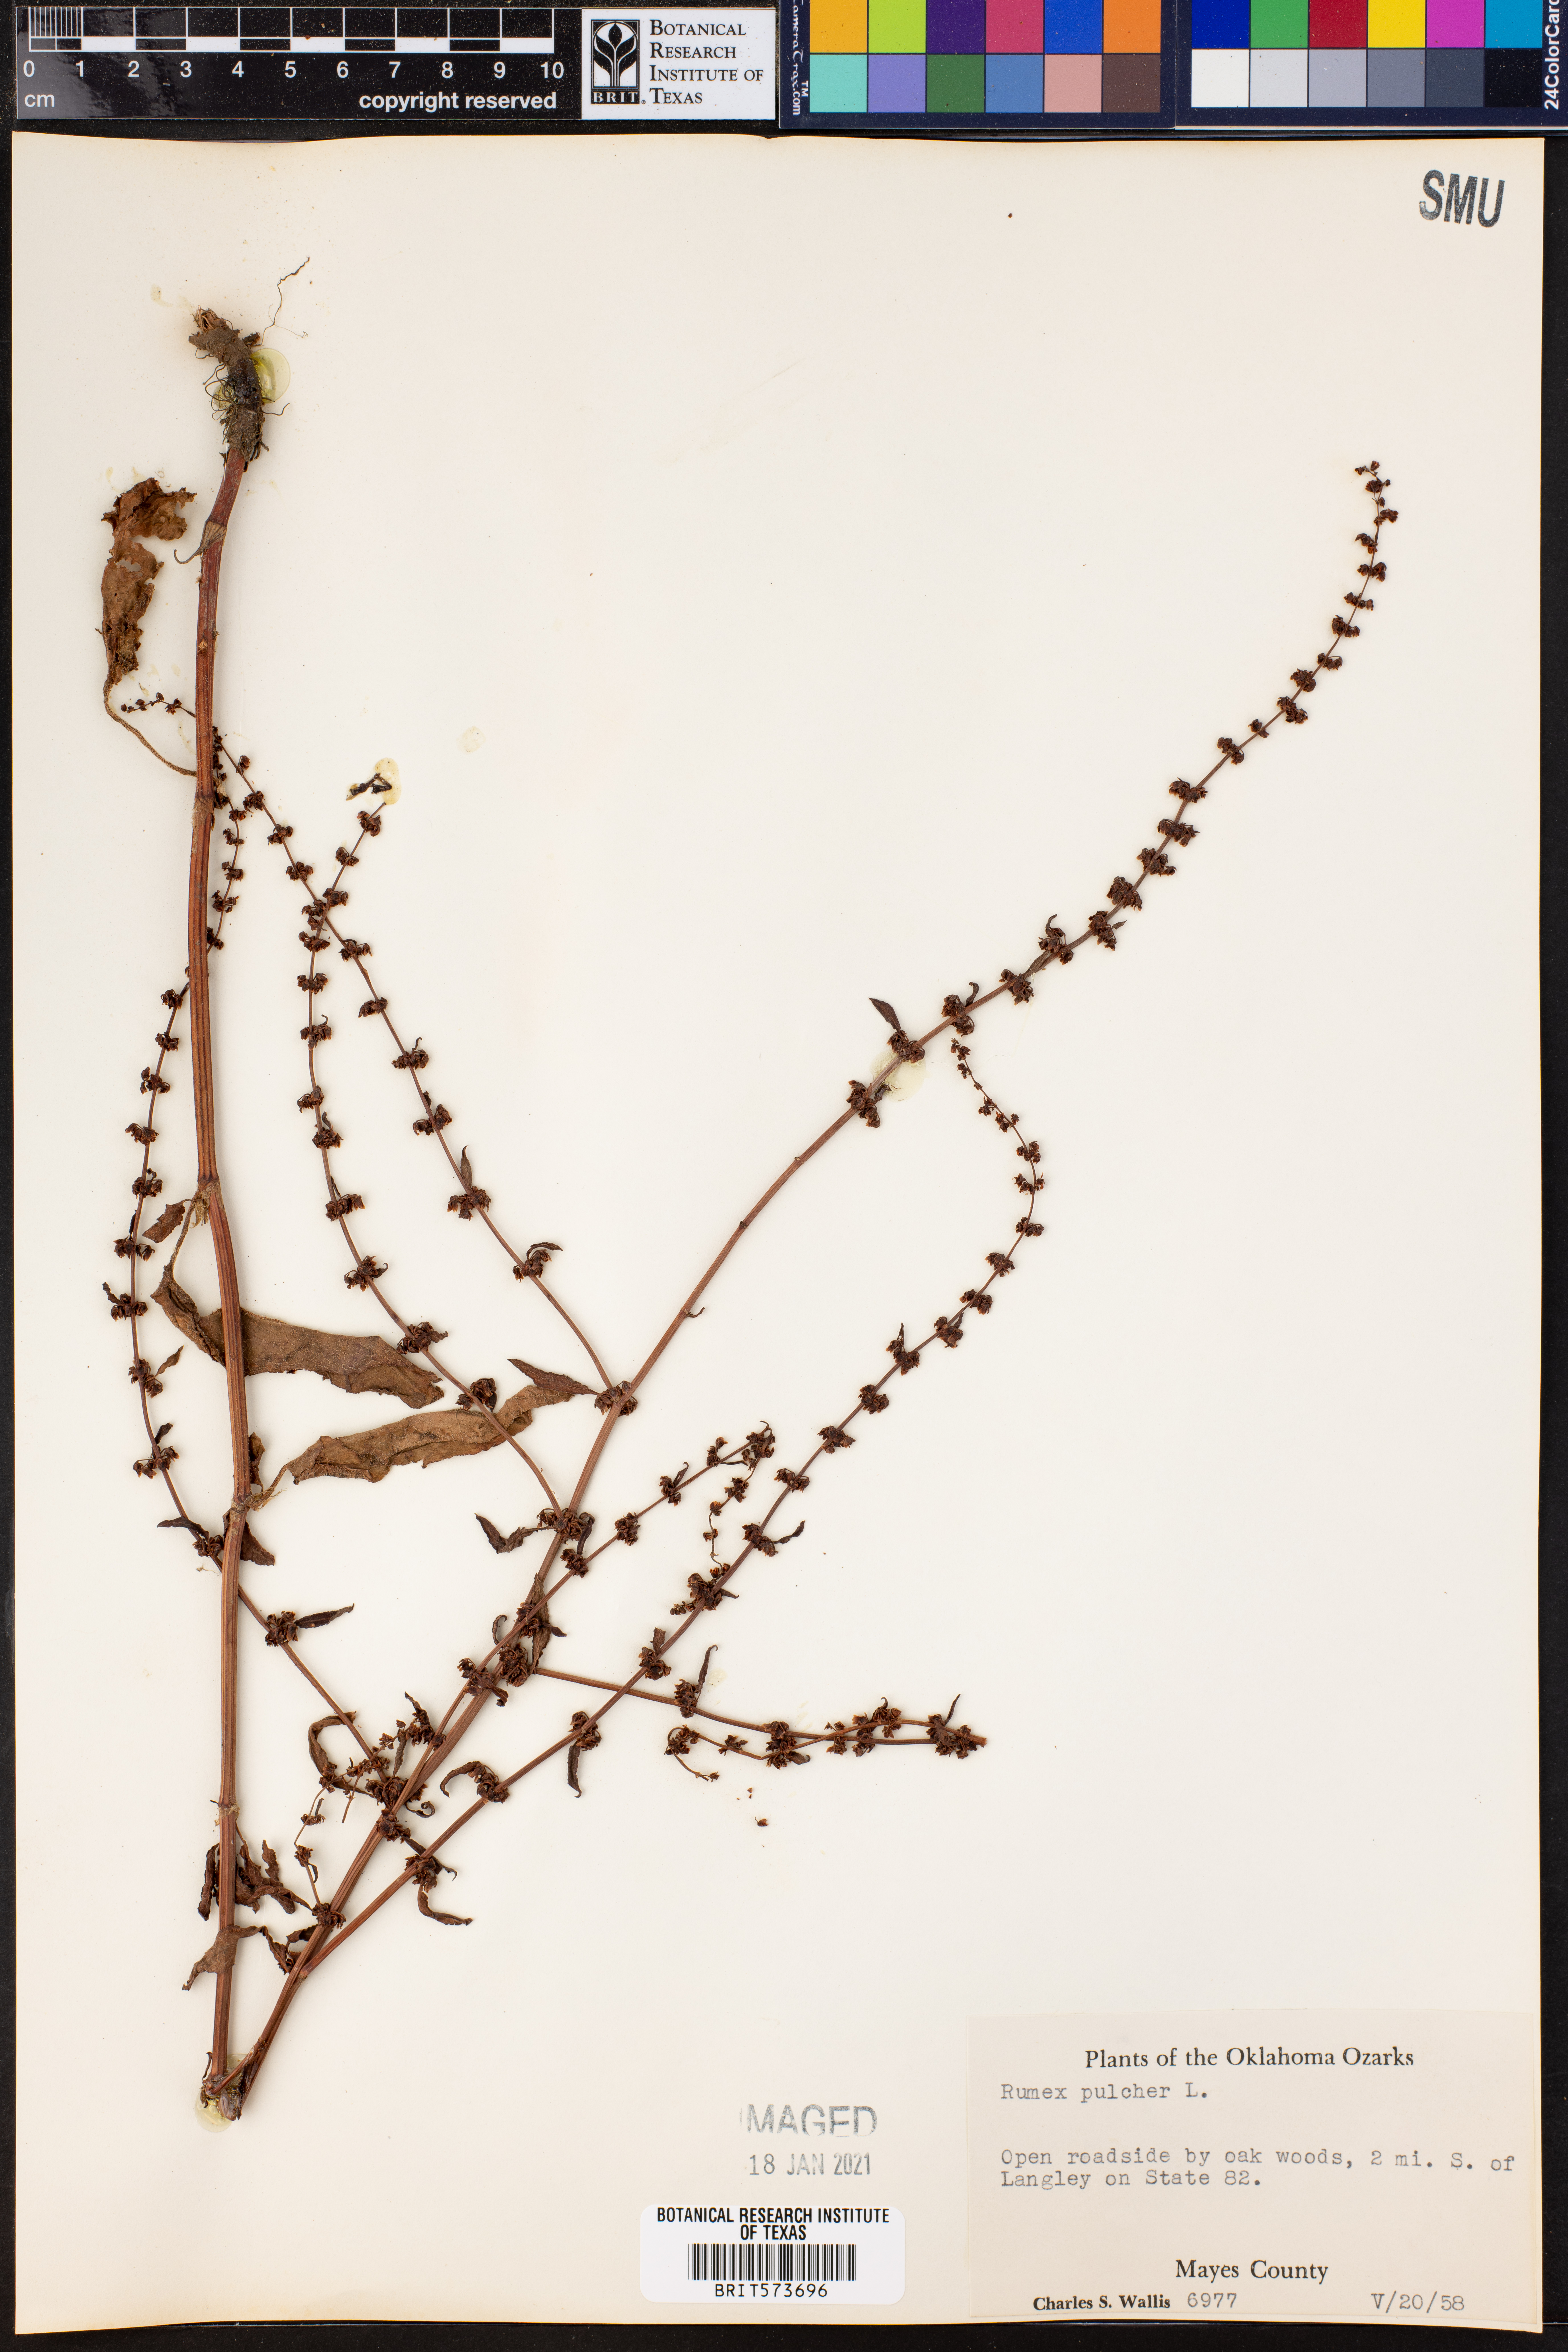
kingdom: Plantae
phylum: Tracheophyta
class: Magnoliopsida
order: Caryophyllales
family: Polygonaceae
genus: Rumex
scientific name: Rumex pulcher
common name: Fiddle dock
